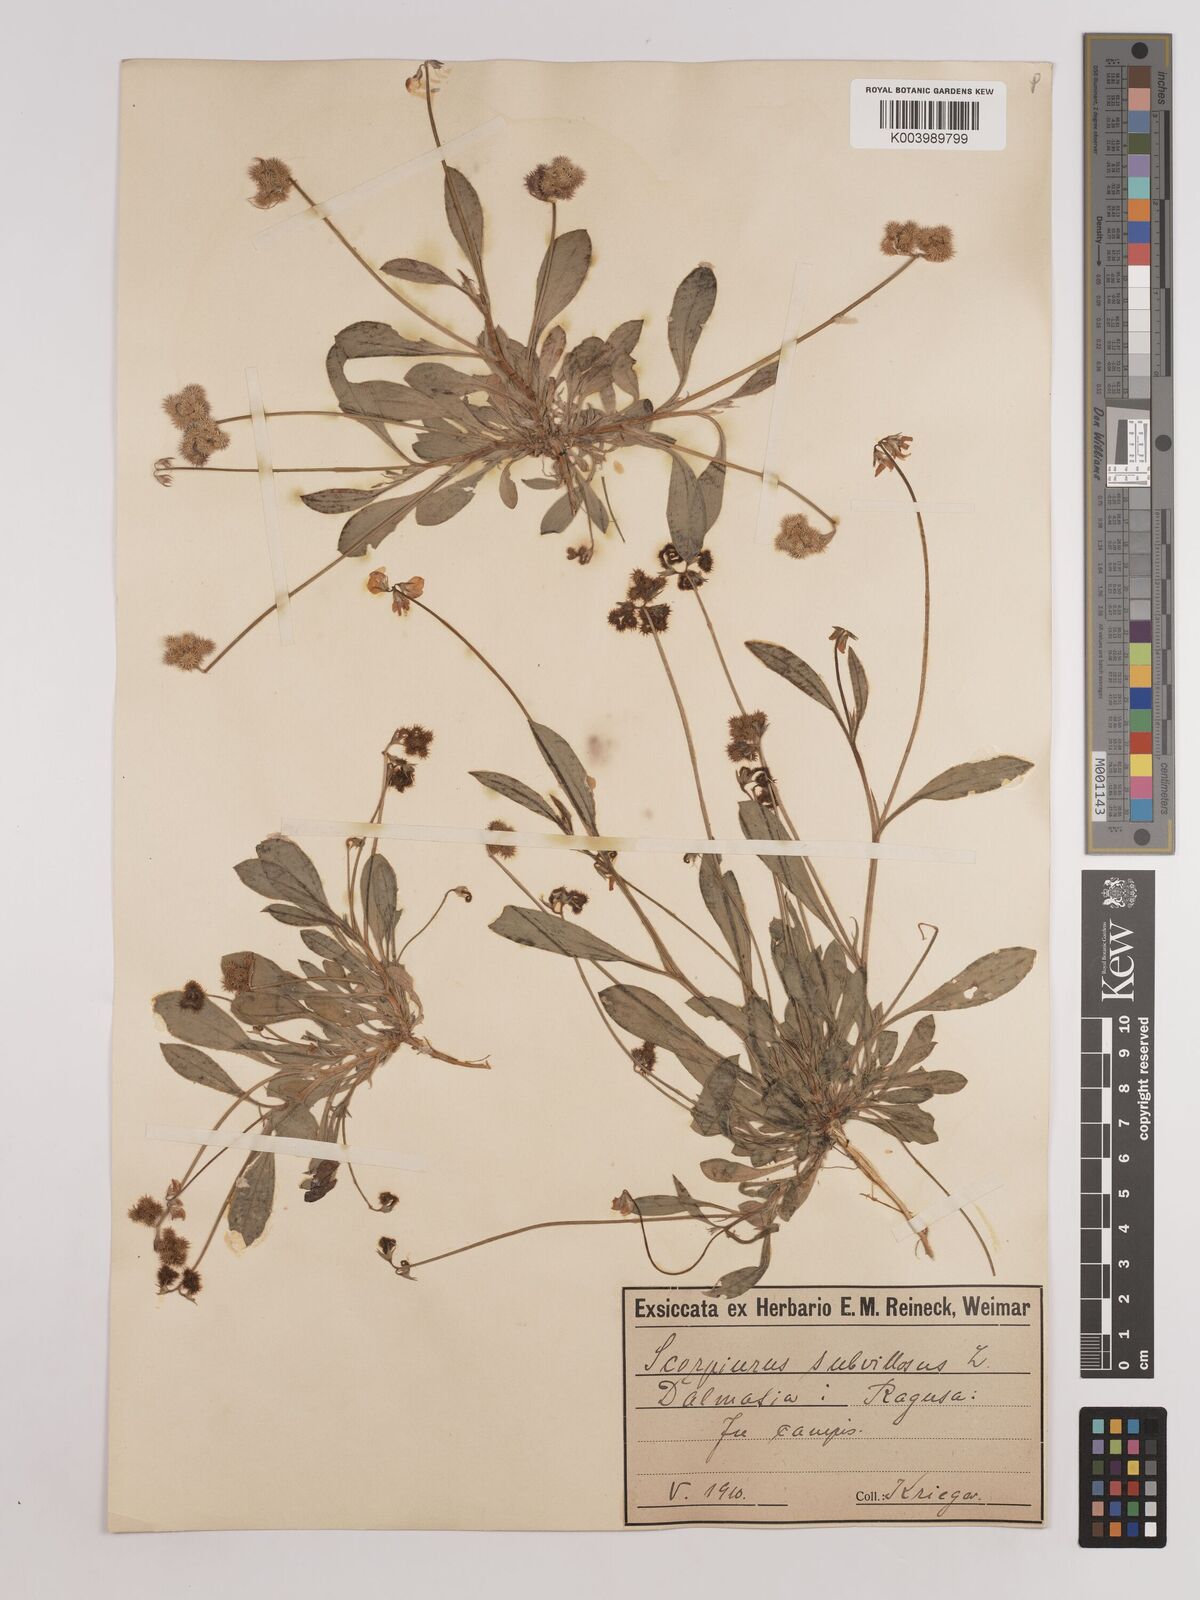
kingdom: Plantae
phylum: Tracheophyta
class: Magnoliopsida
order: Fabales
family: Fabaceae
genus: Scorpiurus
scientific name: Scorpiurus muricatus
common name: Caterpillar-plant
